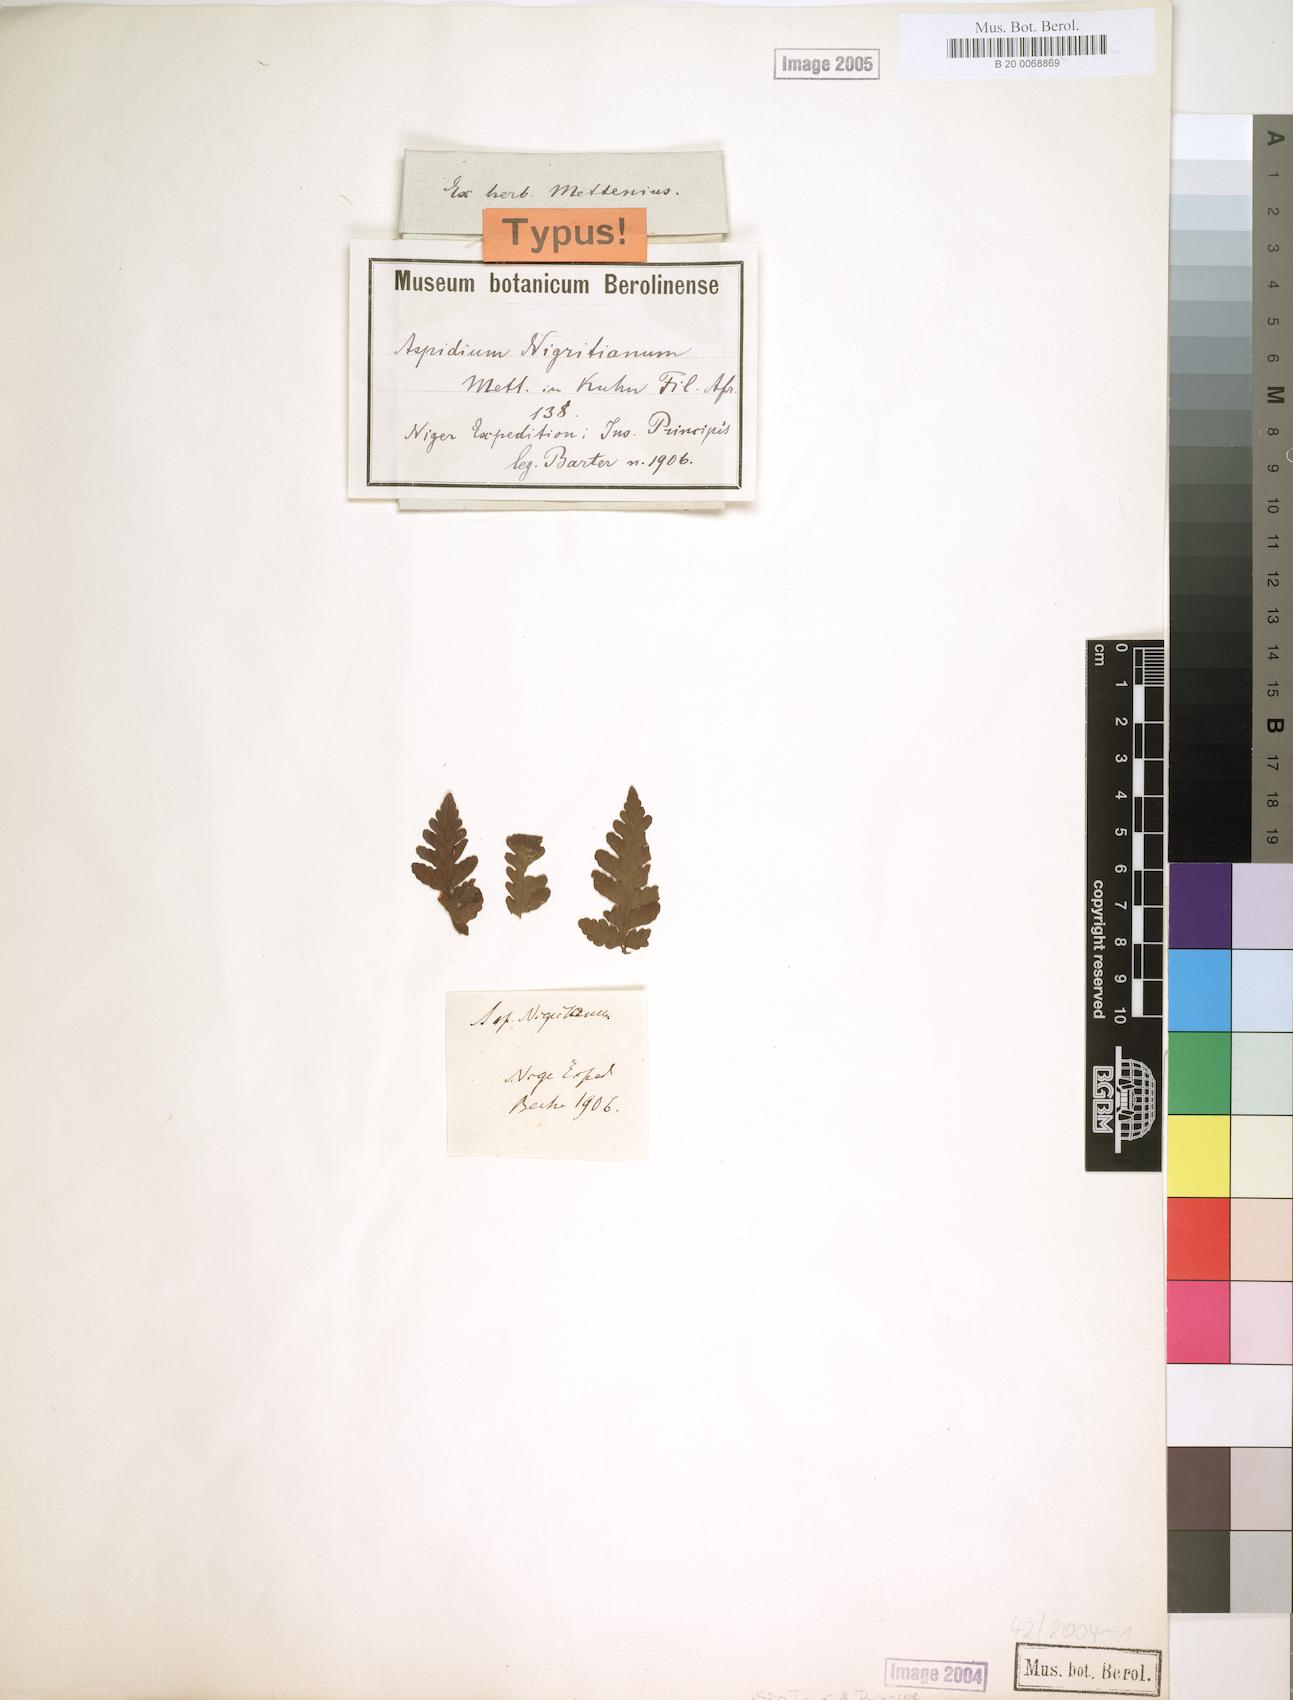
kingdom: Plantae
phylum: Tracheophyta
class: Polypodiopsida
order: Polypodiales
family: Dryopteridaceae
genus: Parapolystichum
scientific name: Parapolystichum nigritianum
